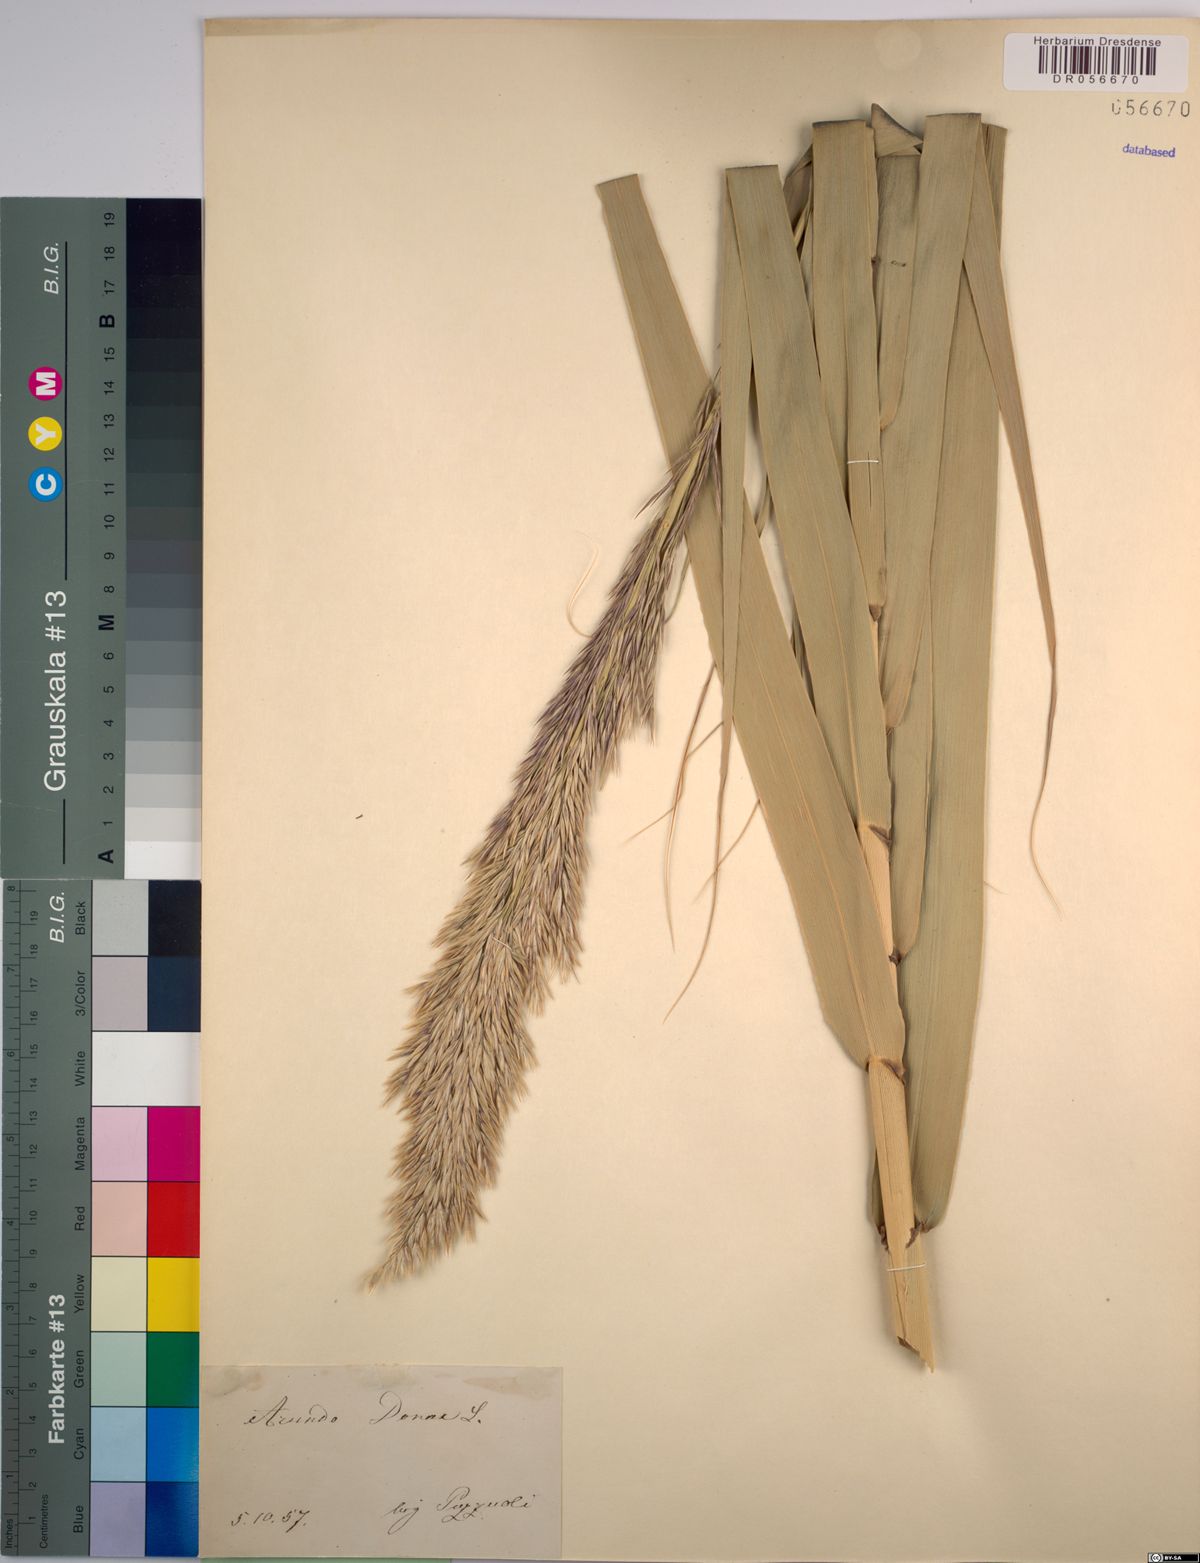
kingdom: Plantae
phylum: Tracheophyta
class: Liliopsida
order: Poales
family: Poaceae
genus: Arundo
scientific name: Arundo donax
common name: Giant reed
